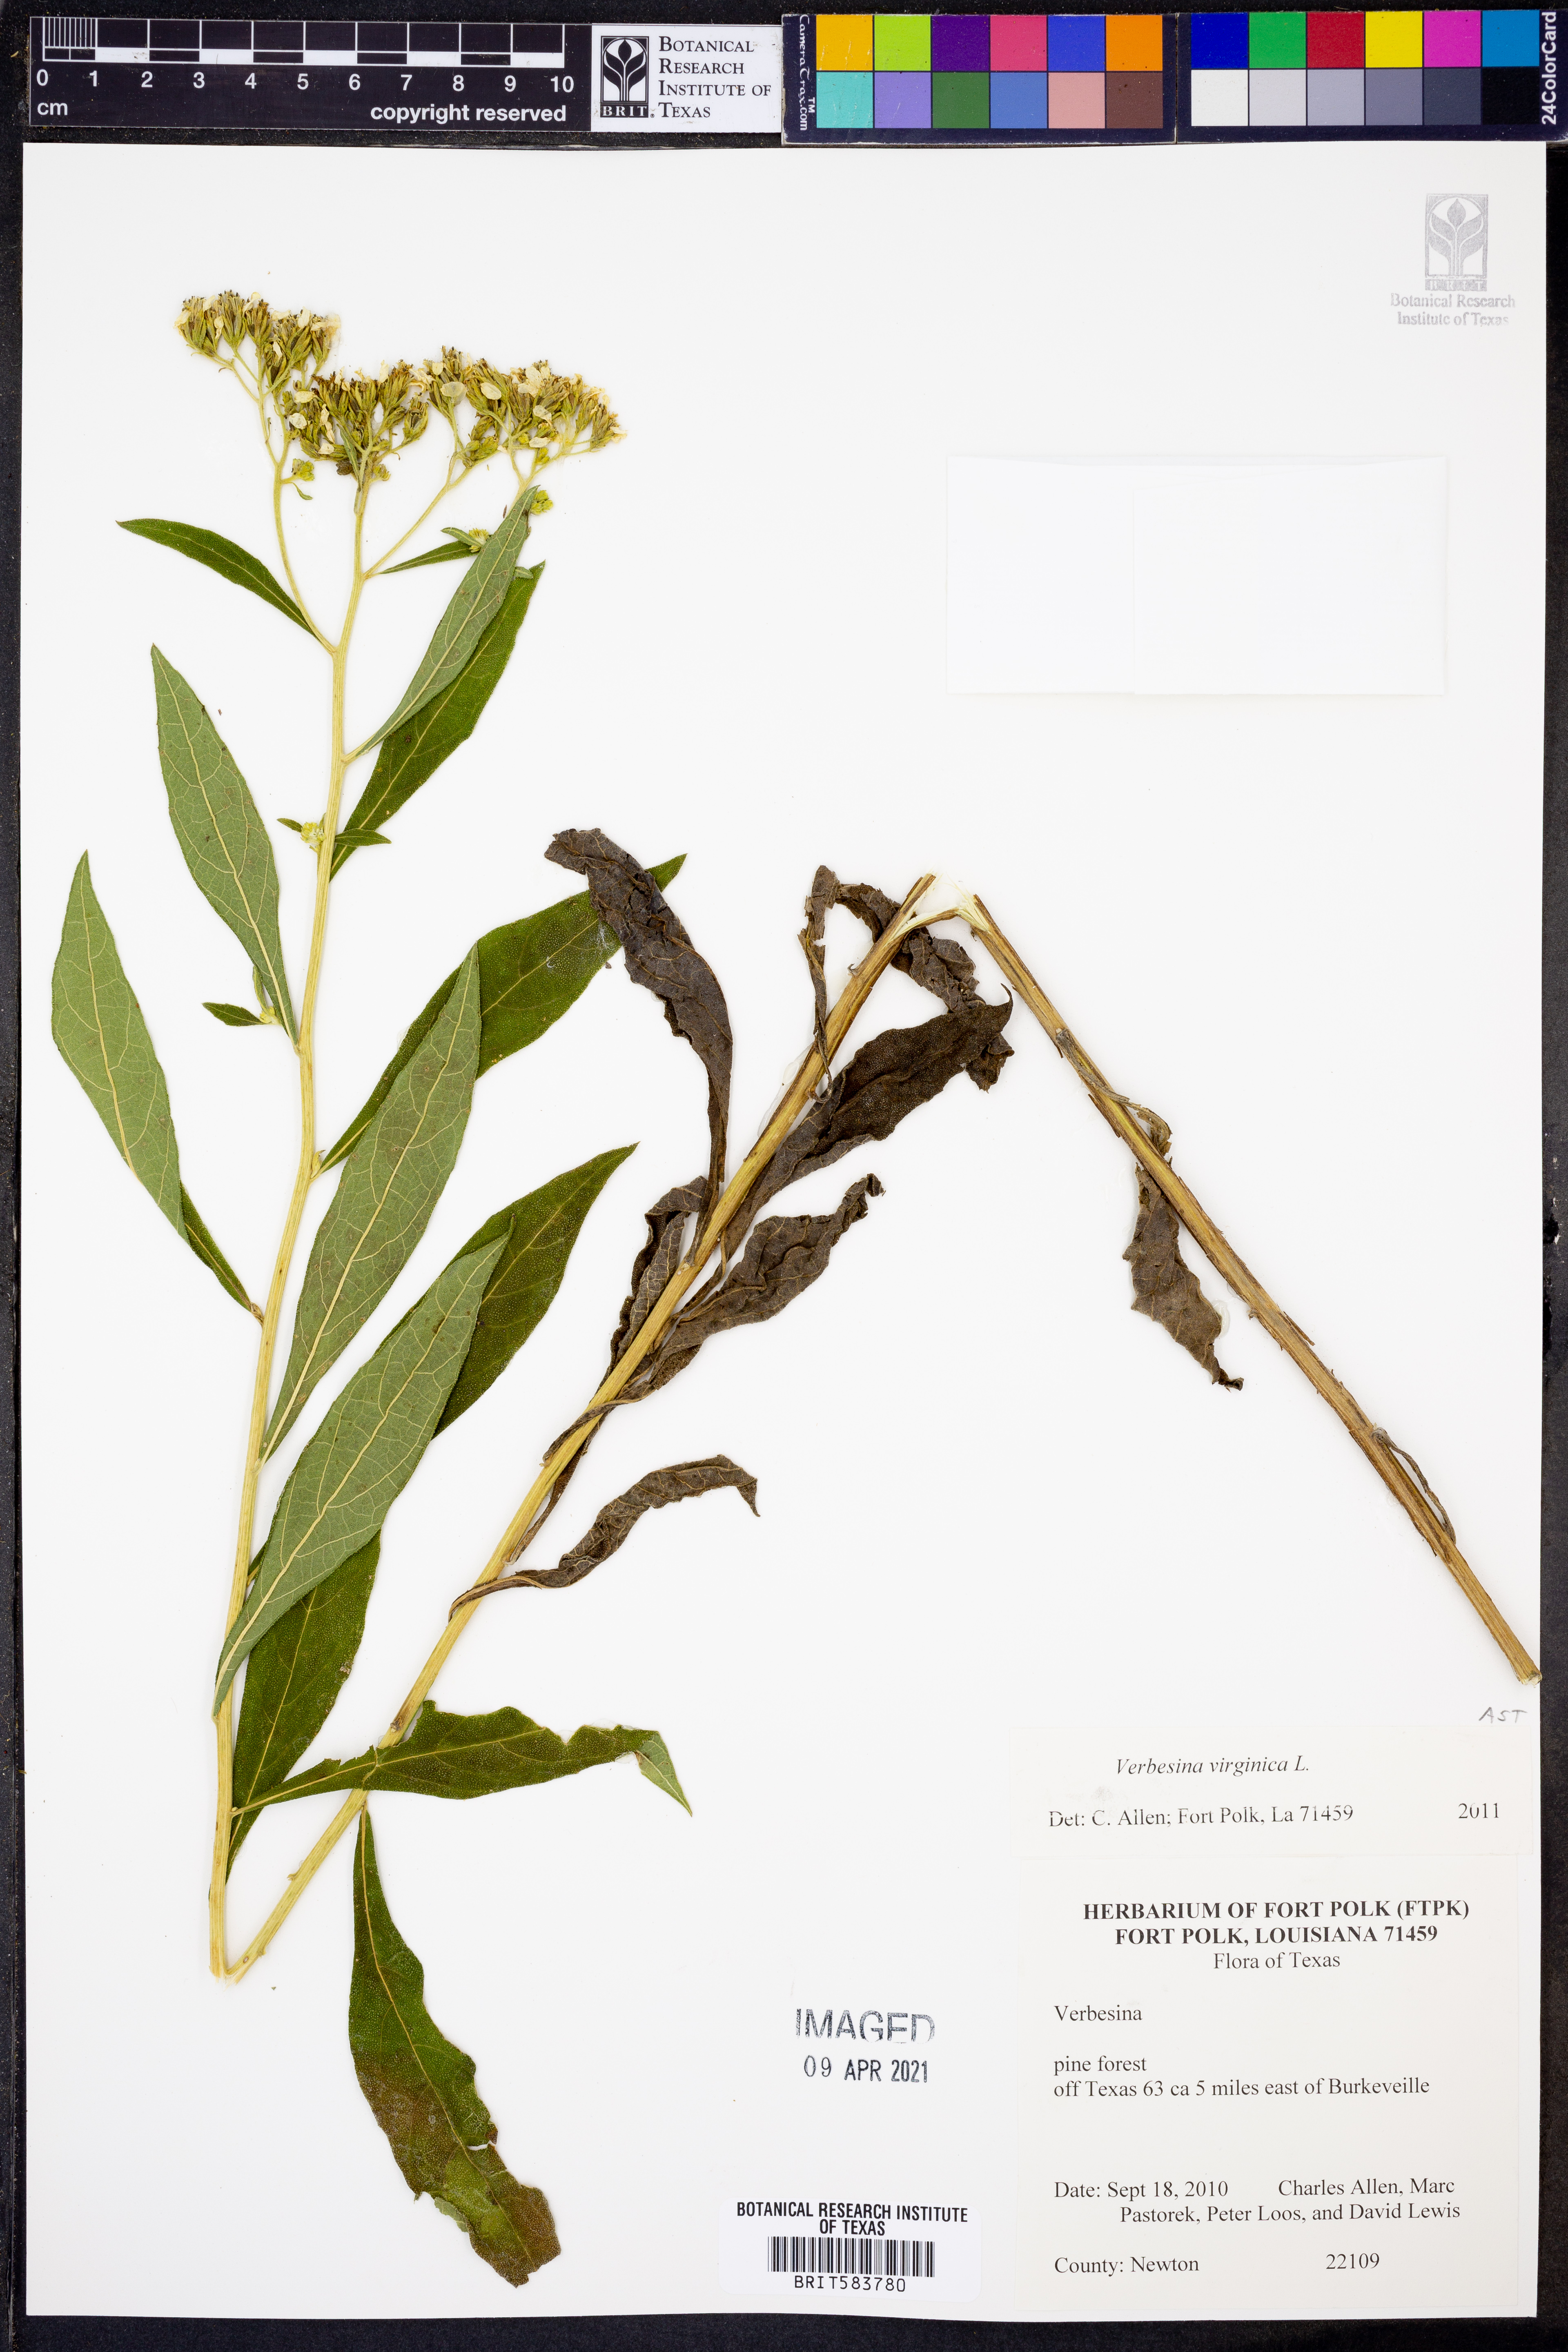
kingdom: Plantae
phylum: Tracheophyta
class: Magnoliopsida
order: Asterales
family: Asteraceae
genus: Verbesina
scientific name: Verbesina virginica
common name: Frostweed
